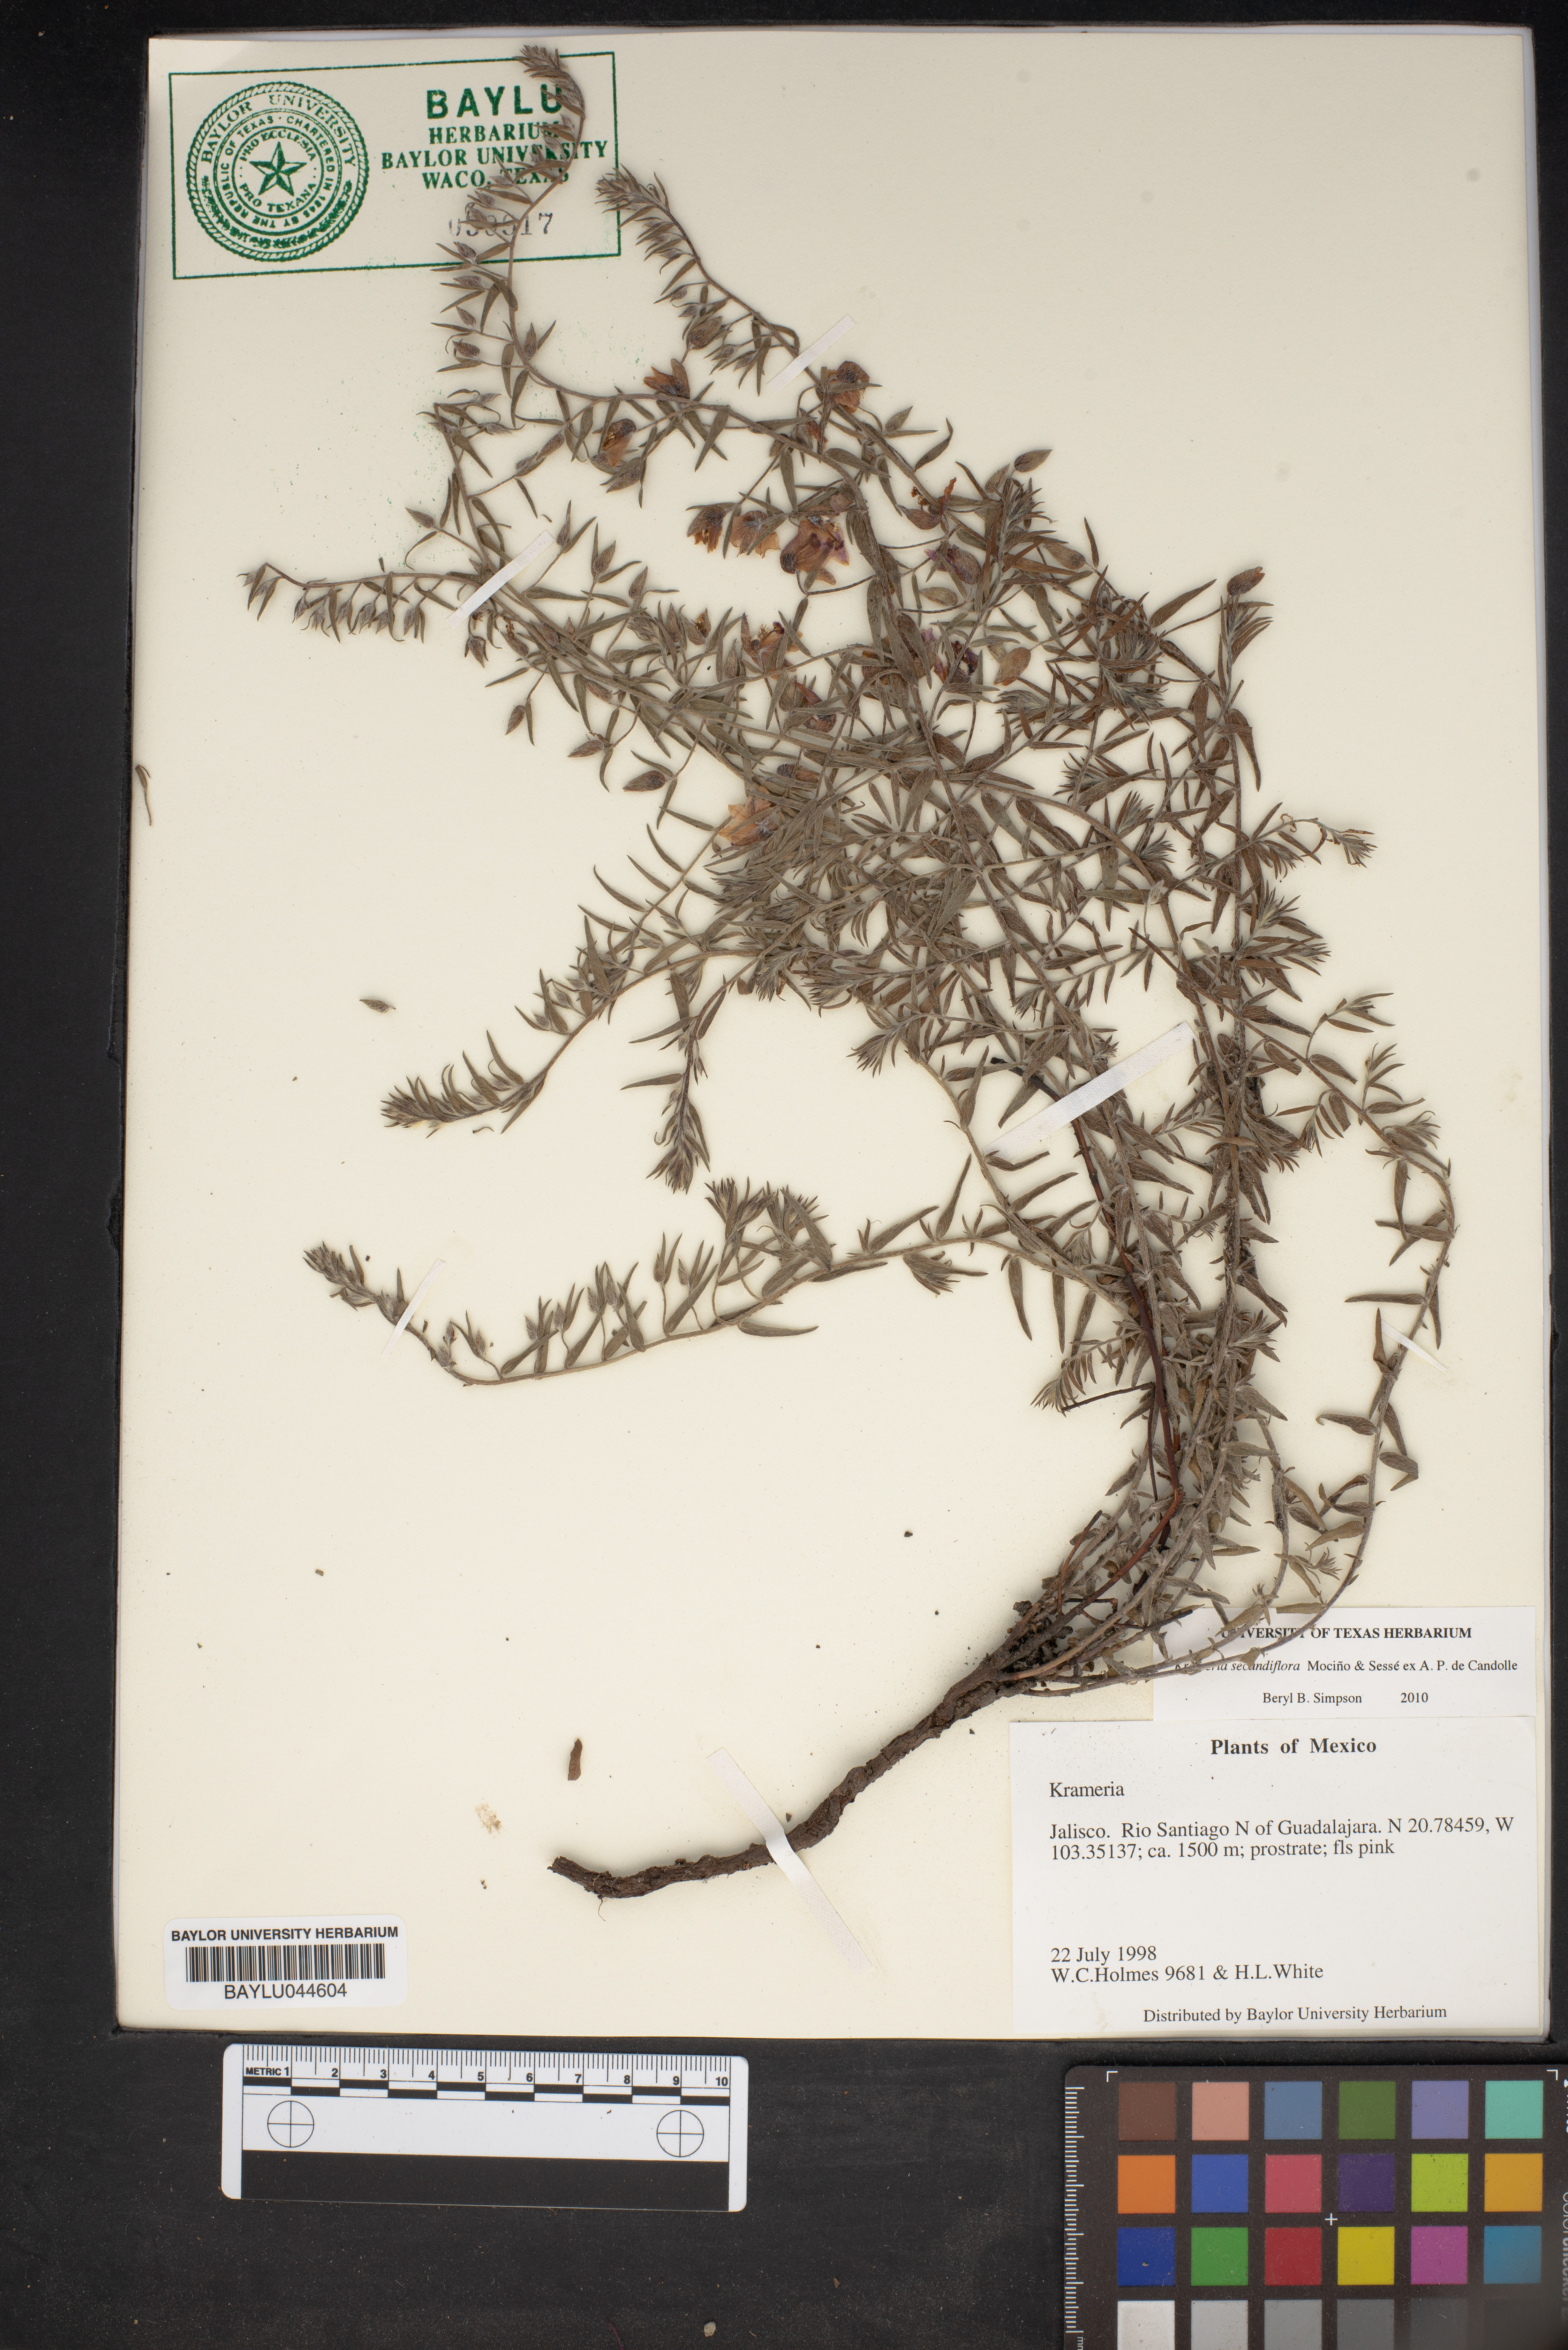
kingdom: Plantae
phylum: Tracheophyta
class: Magnoliopsida
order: Zygophyllales
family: Krameriaceae
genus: Krameria
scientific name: Krameria secundiflora
